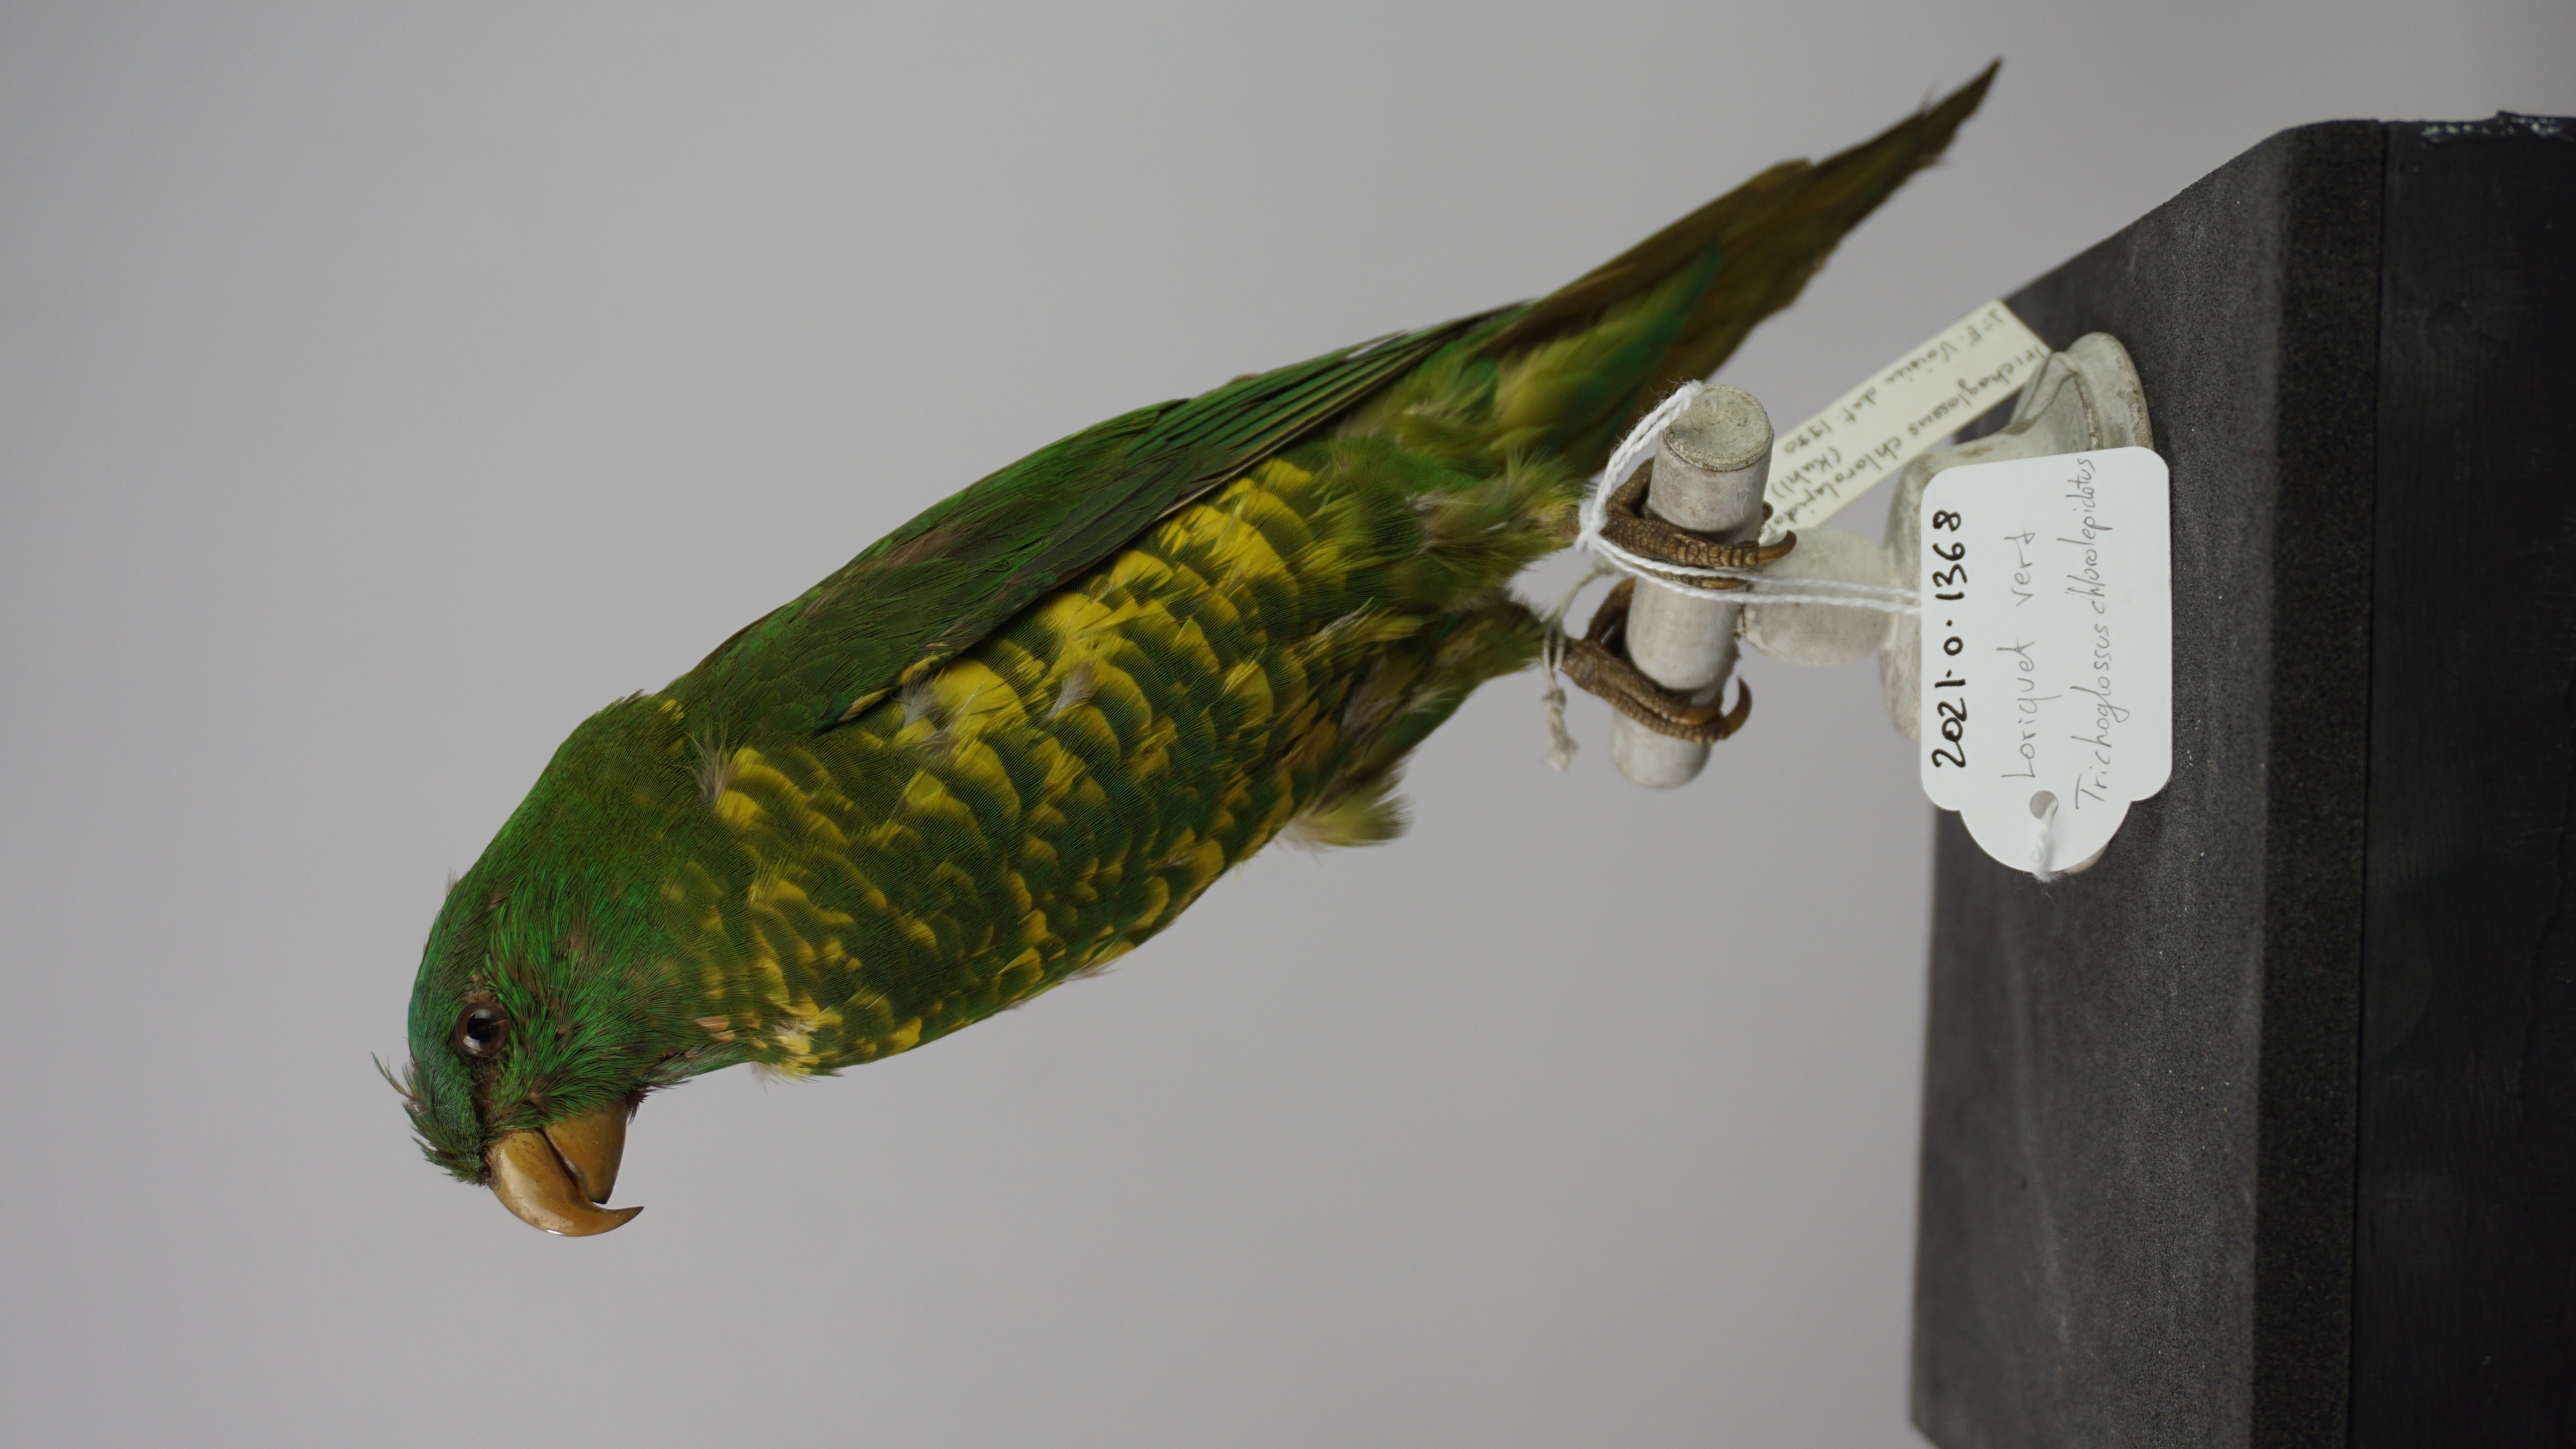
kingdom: Animalia
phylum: Chordata
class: Aves
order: Psittaciformes
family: Psittacidae
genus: Trichoglossus
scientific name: Trichoglossus chlorolepidotus
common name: Scaly-breasted lorikeet
